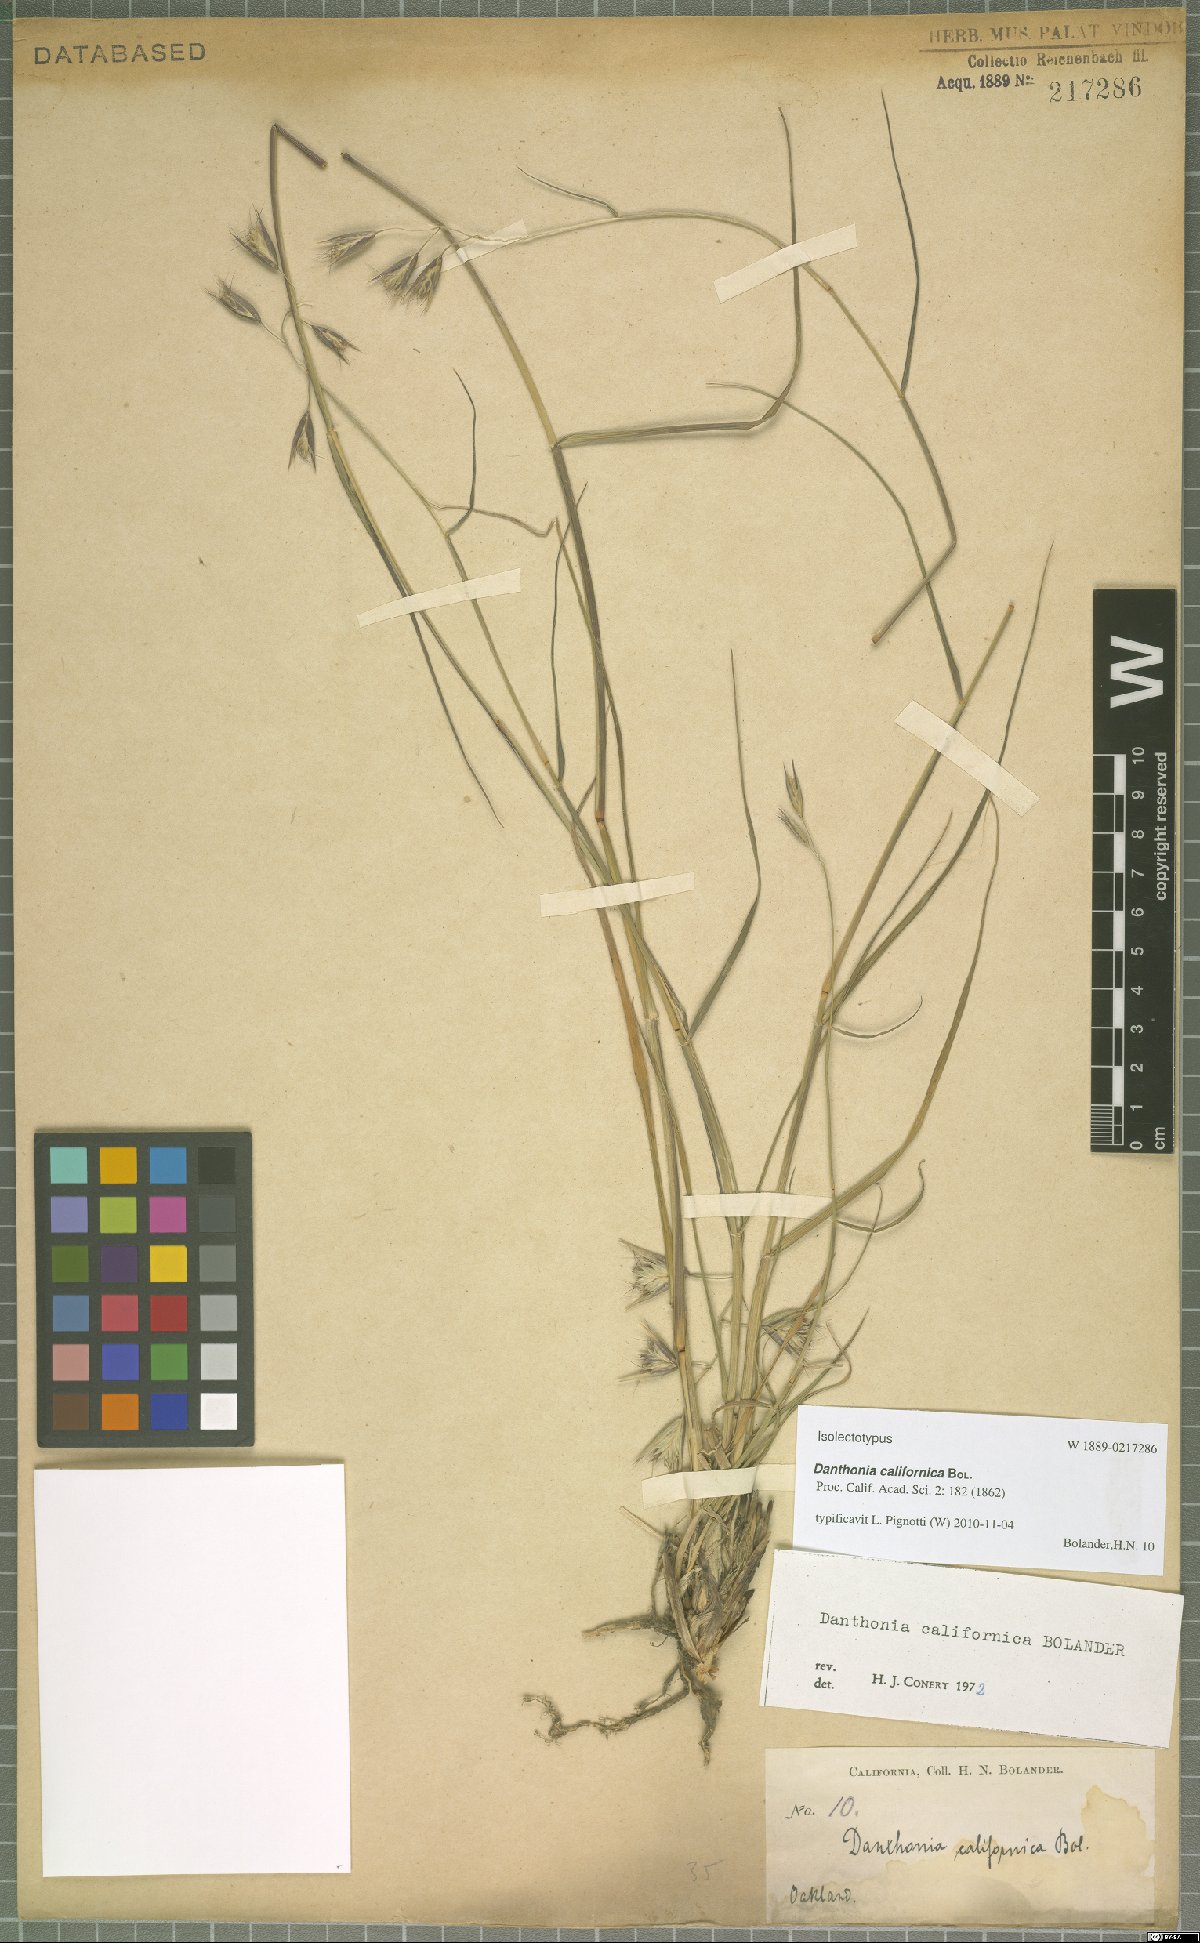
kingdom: Plantae
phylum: Tracheophyta
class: Liliopsida
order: Poales
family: Poaceae
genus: Danthonia
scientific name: Danthonia californica
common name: California oat grass
